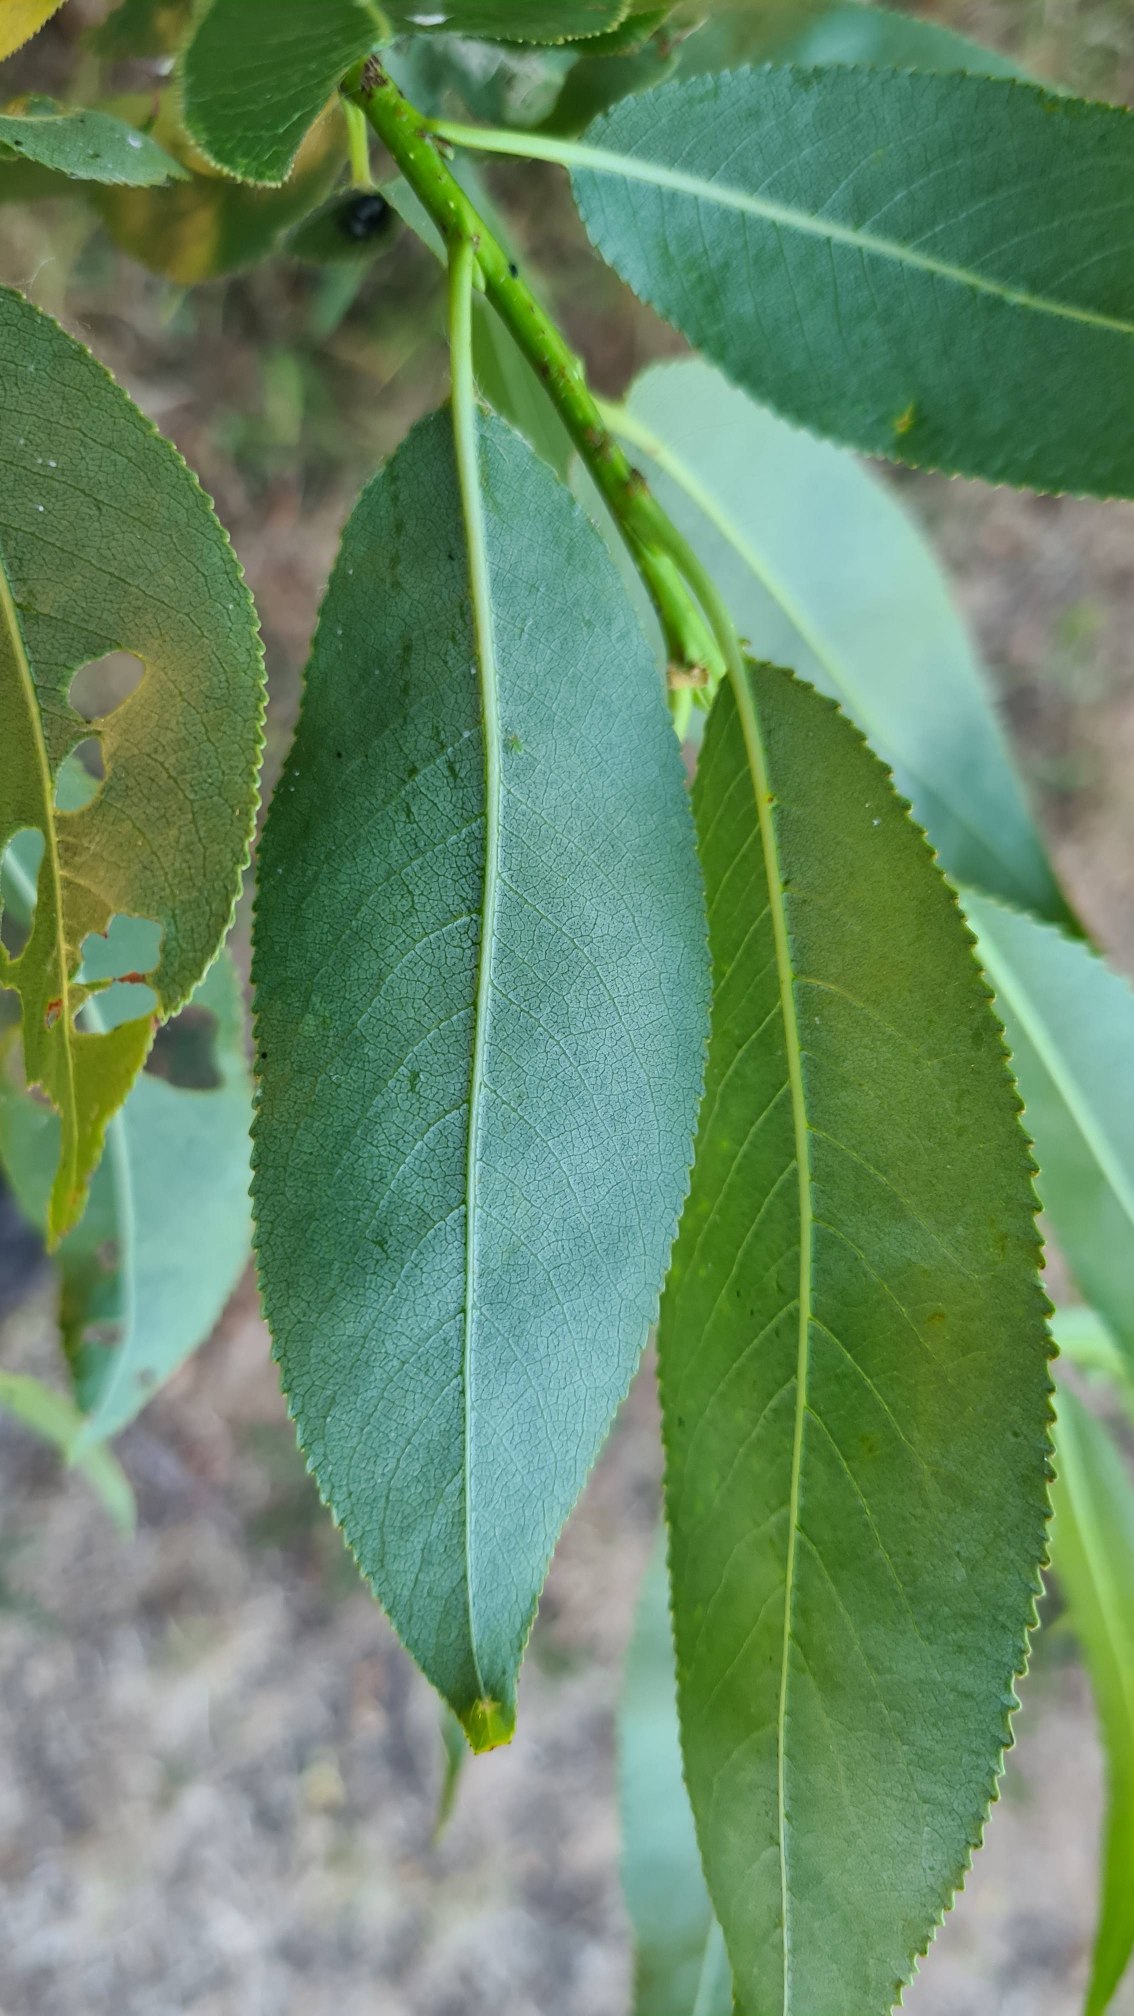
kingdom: Plantae
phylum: Tracheophyta
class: Magnoliopsida
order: Malpighiales
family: Salicaceae
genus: Salix
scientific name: Salix fragilis
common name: Grøn pil
